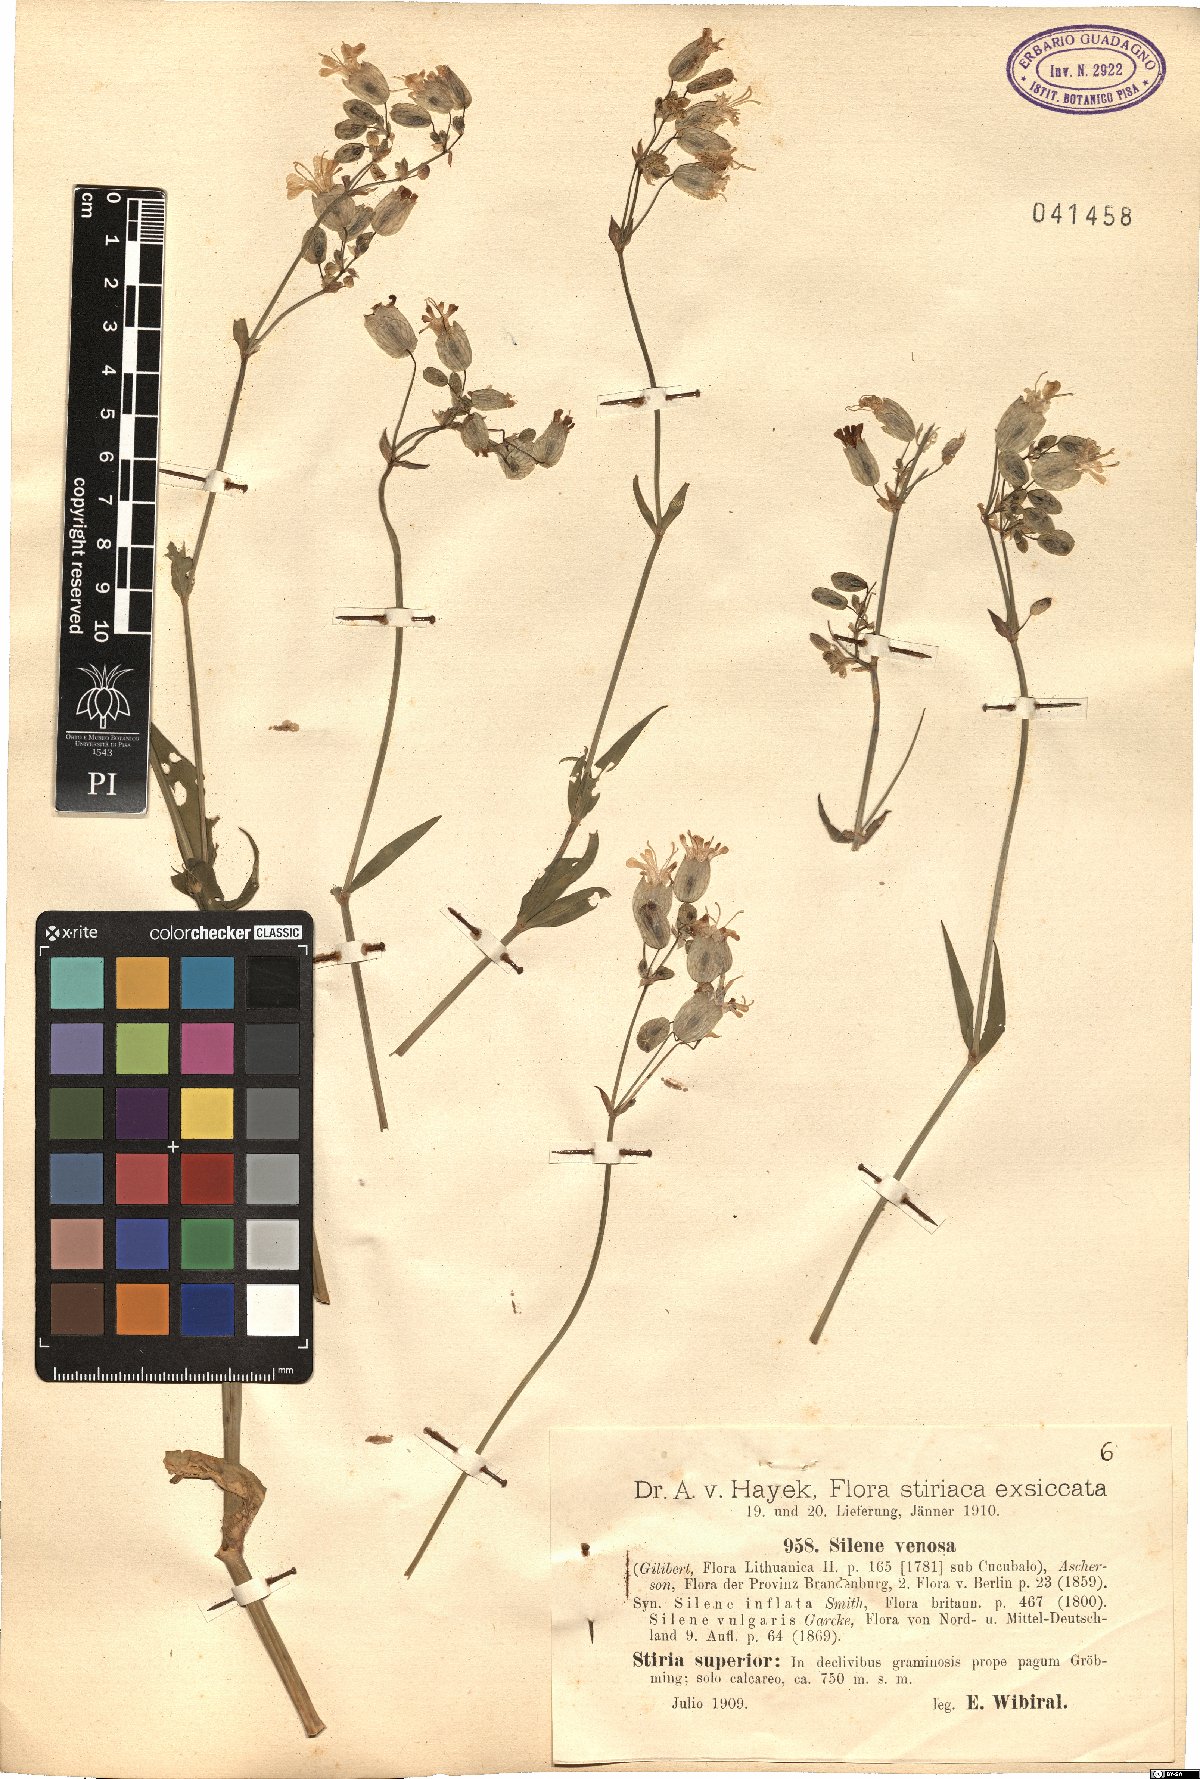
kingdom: Plantae
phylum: Tracheophyta
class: Magnoliopsida
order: Caryophyllales
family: Caryophyllaceae
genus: Silene
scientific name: Silene vulgaris
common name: Bladder campion
